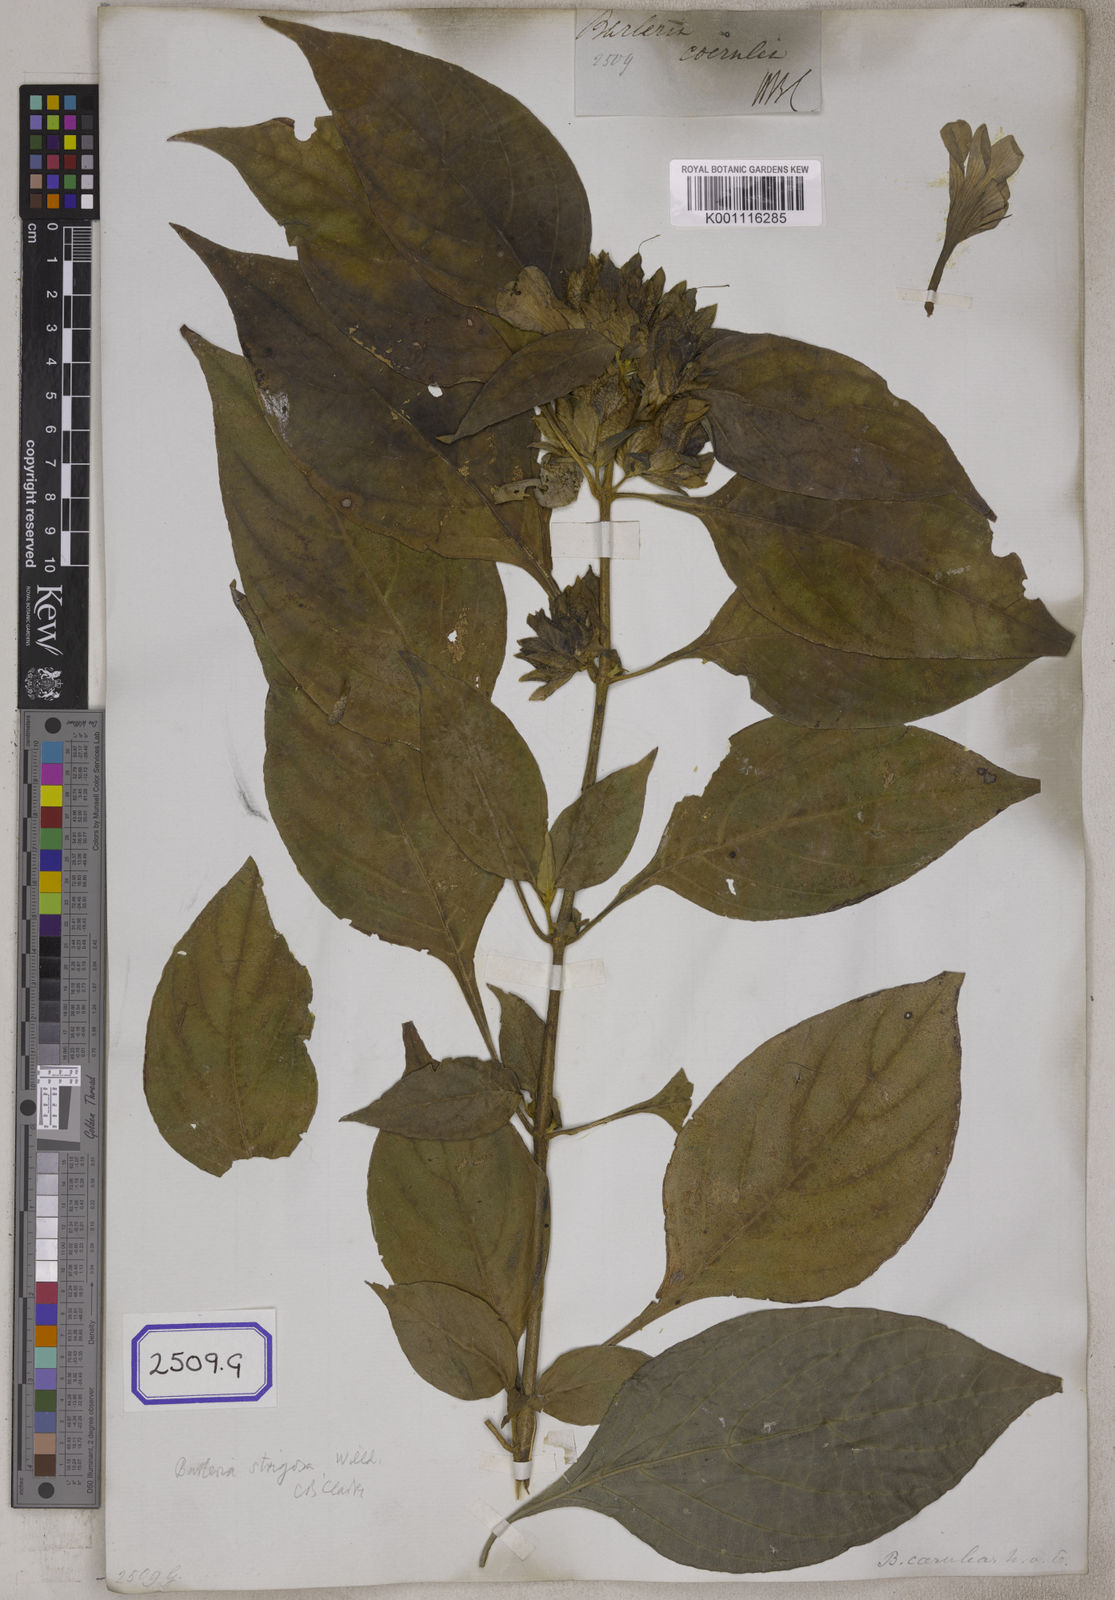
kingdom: Plantae
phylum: Tracheophyta
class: Magnoliopsida
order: Lamiales
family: Acanthaceae
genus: Barleria
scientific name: Barleria strigosa
